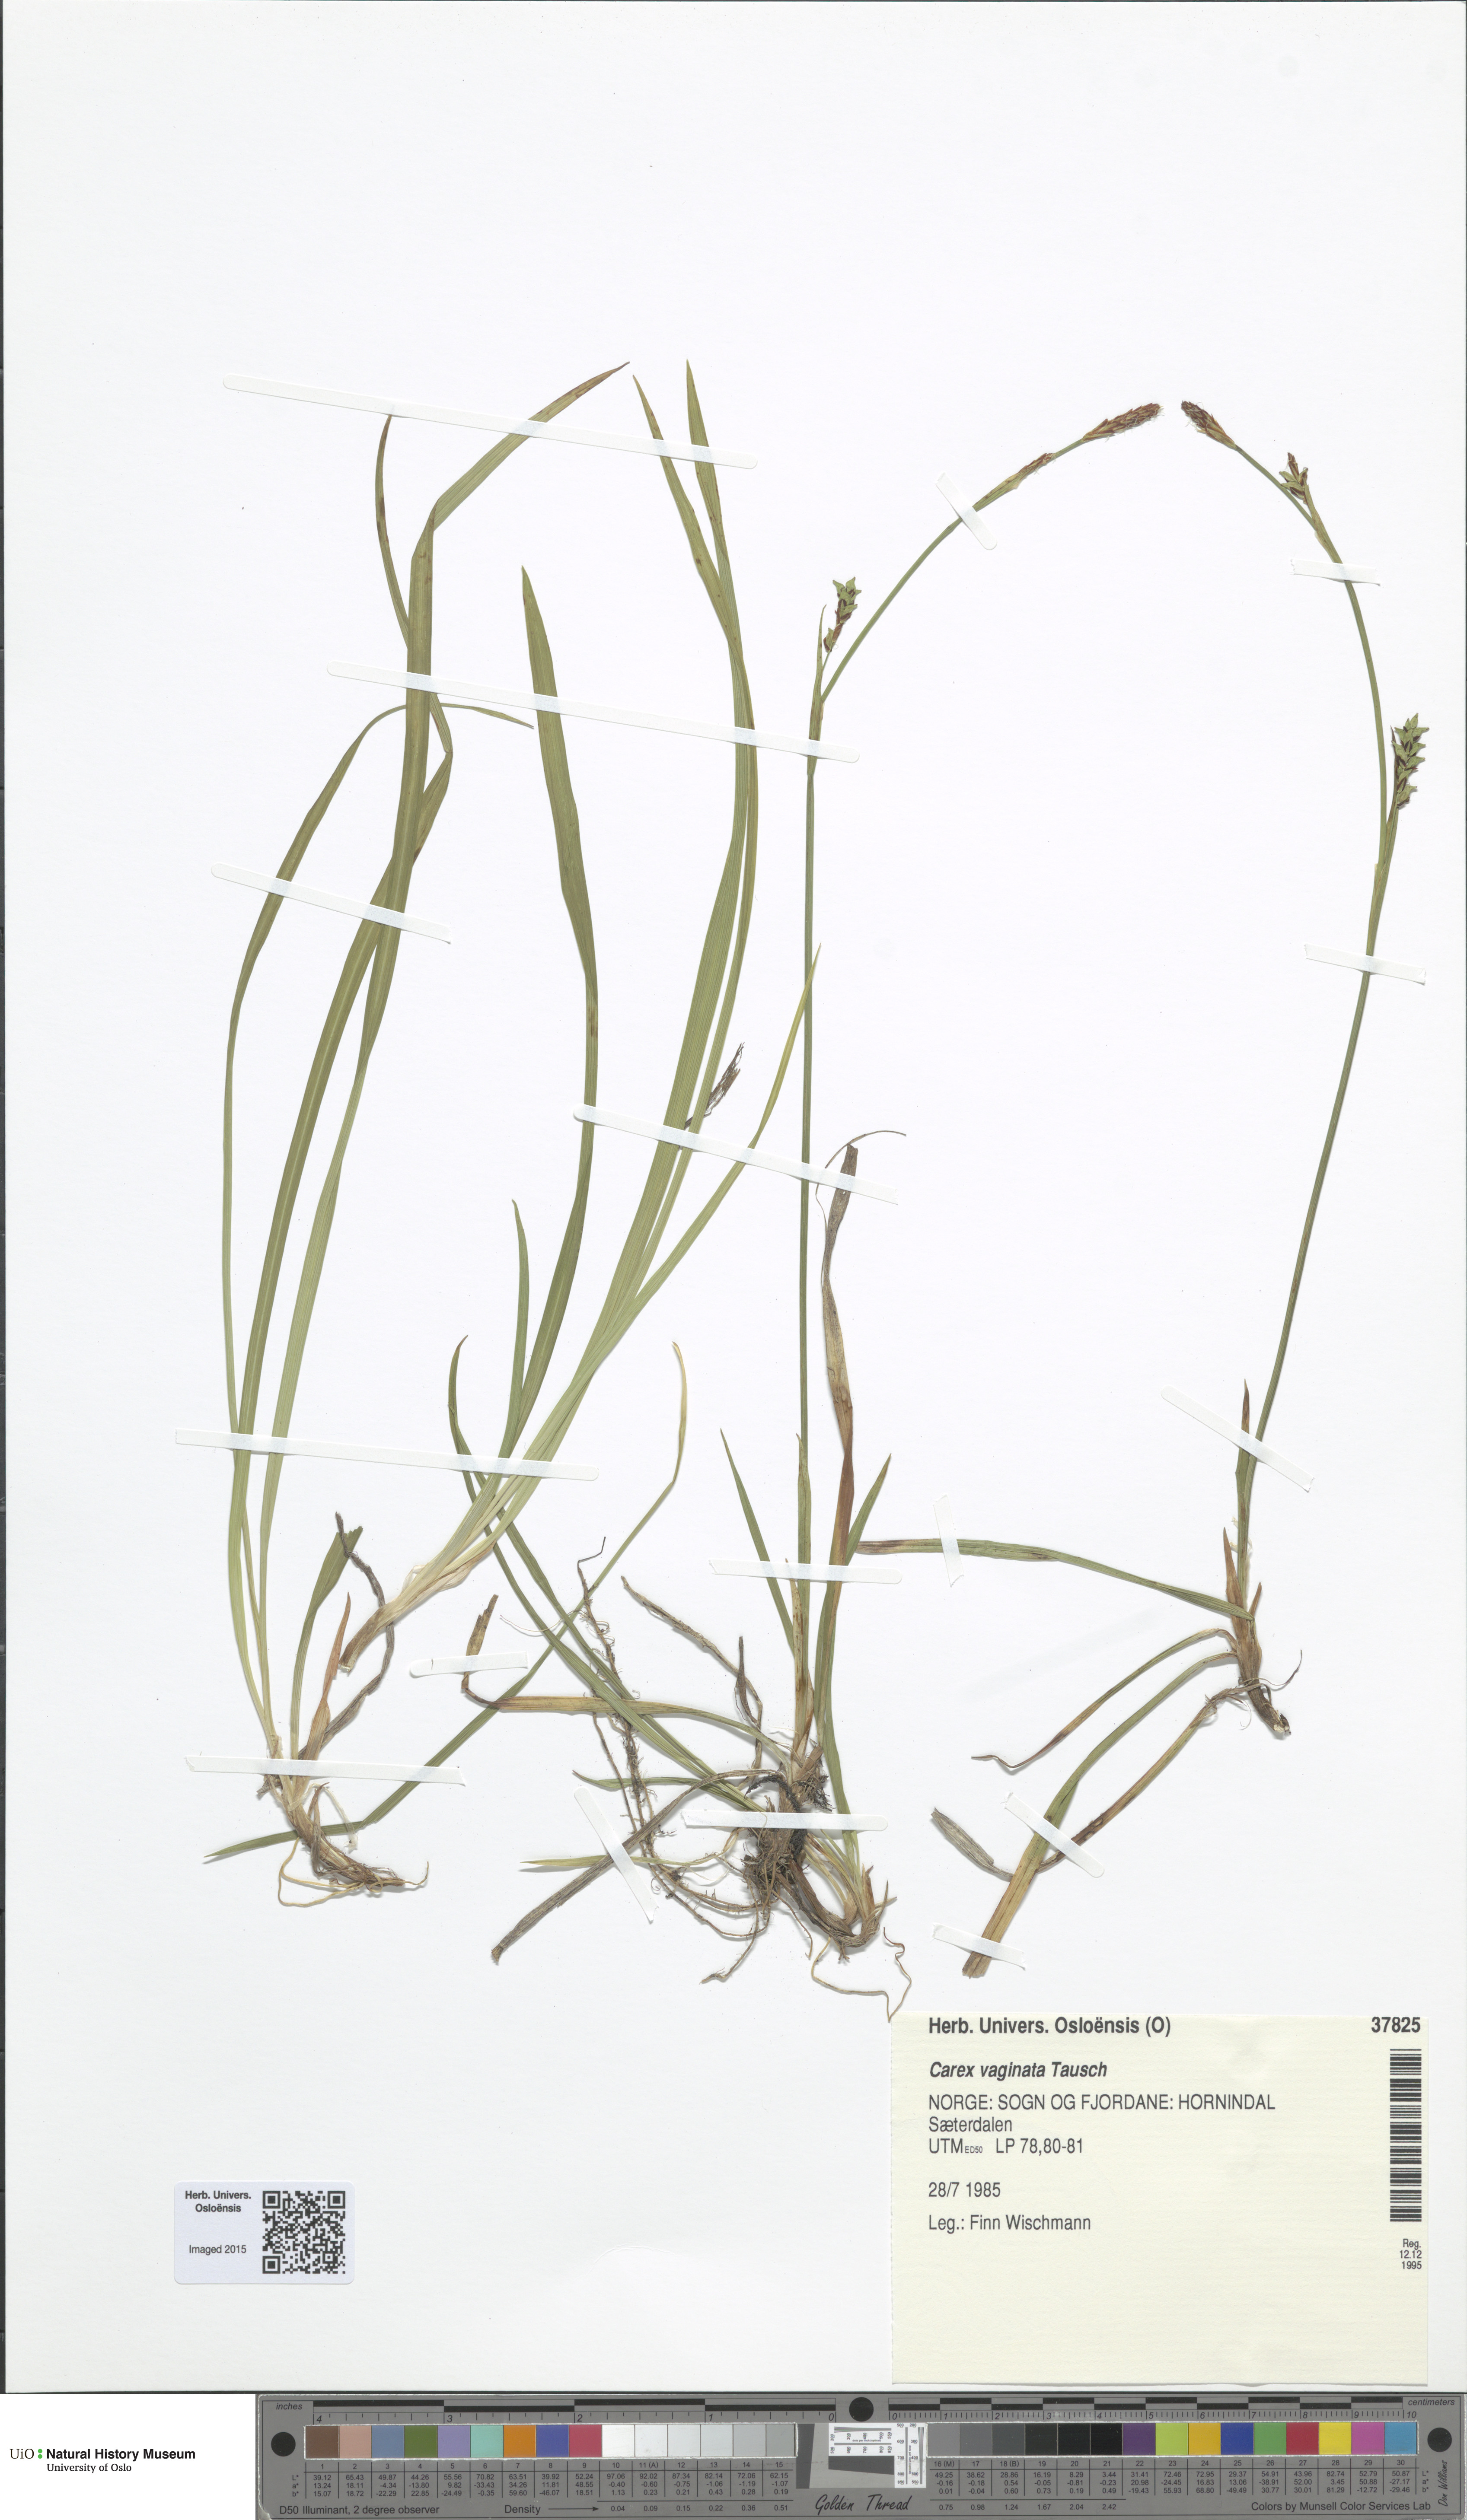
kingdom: Plantae
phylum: Tracheophyta
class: Liliopsida
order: Poales
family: Cyperaceae
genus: Carex
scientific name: Carex vaginata
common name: Sheathed sedge
